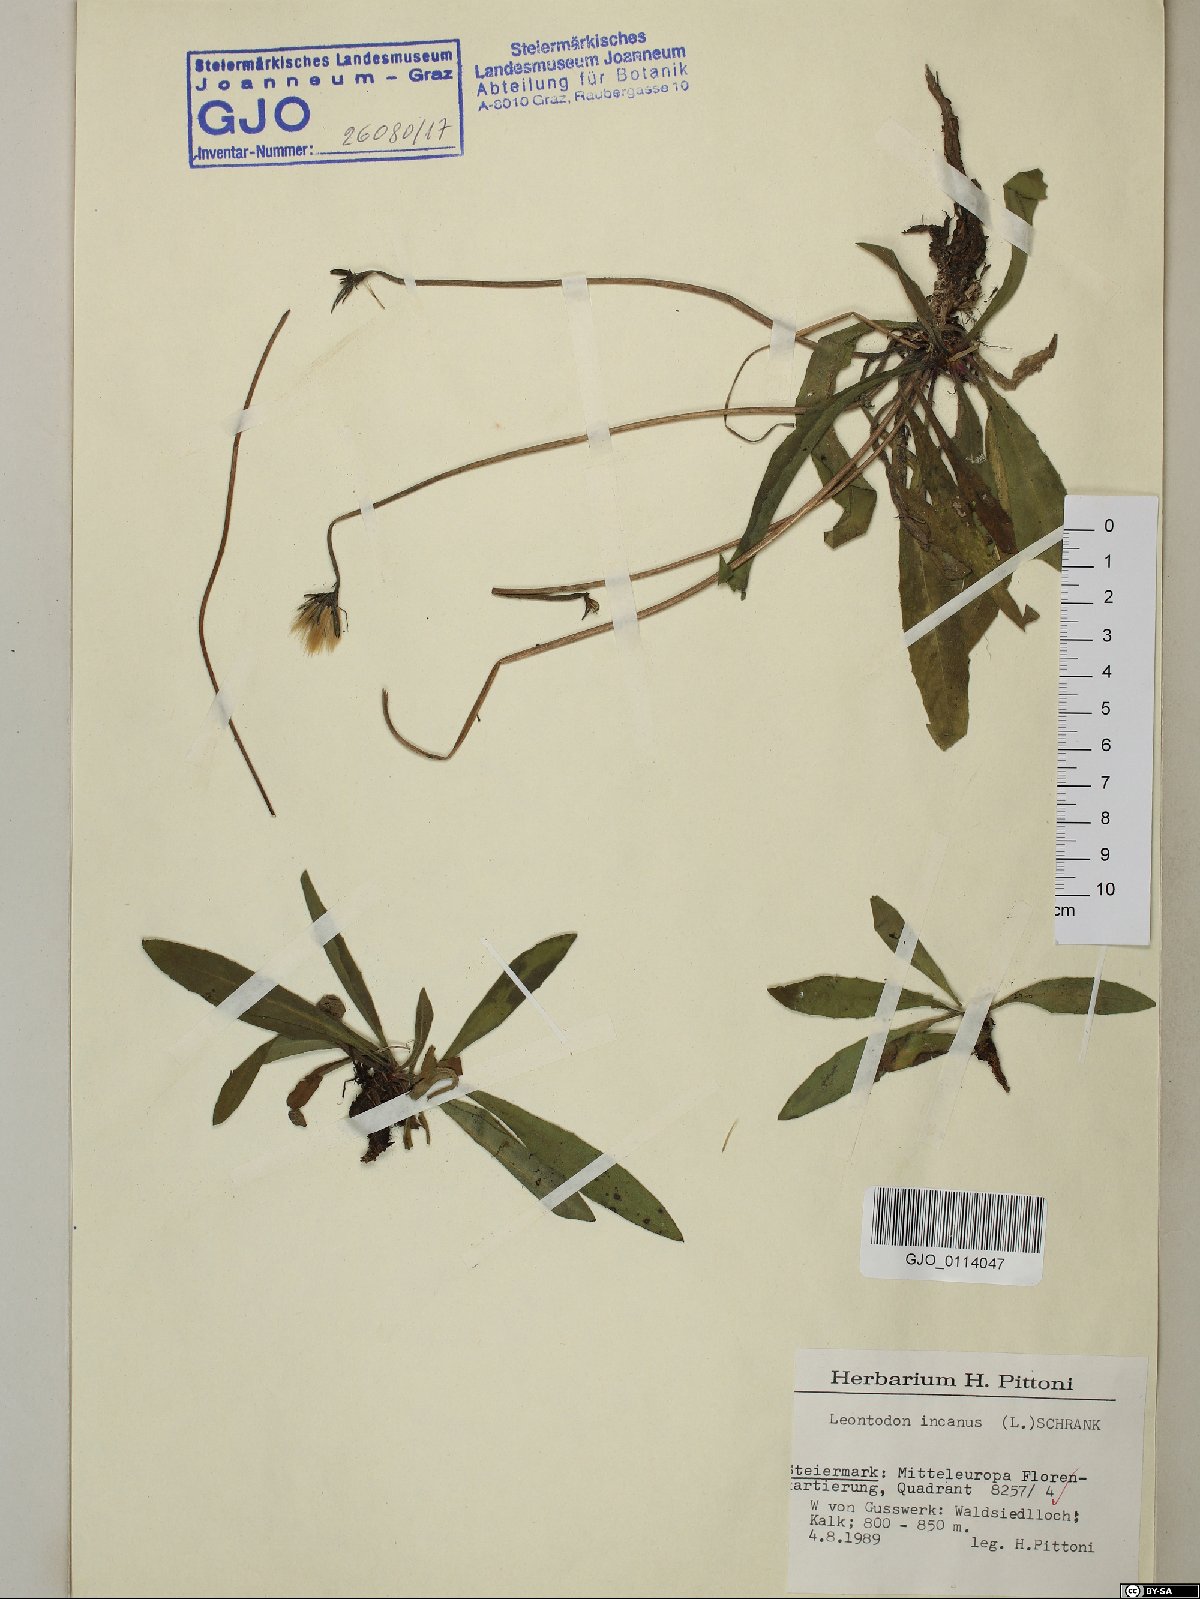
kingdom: Plantae
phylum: Tracheophyta
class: Magnoliopsida
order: Asterales
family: Asteraceae
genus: Leontodon
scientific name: Leontodon incanus
